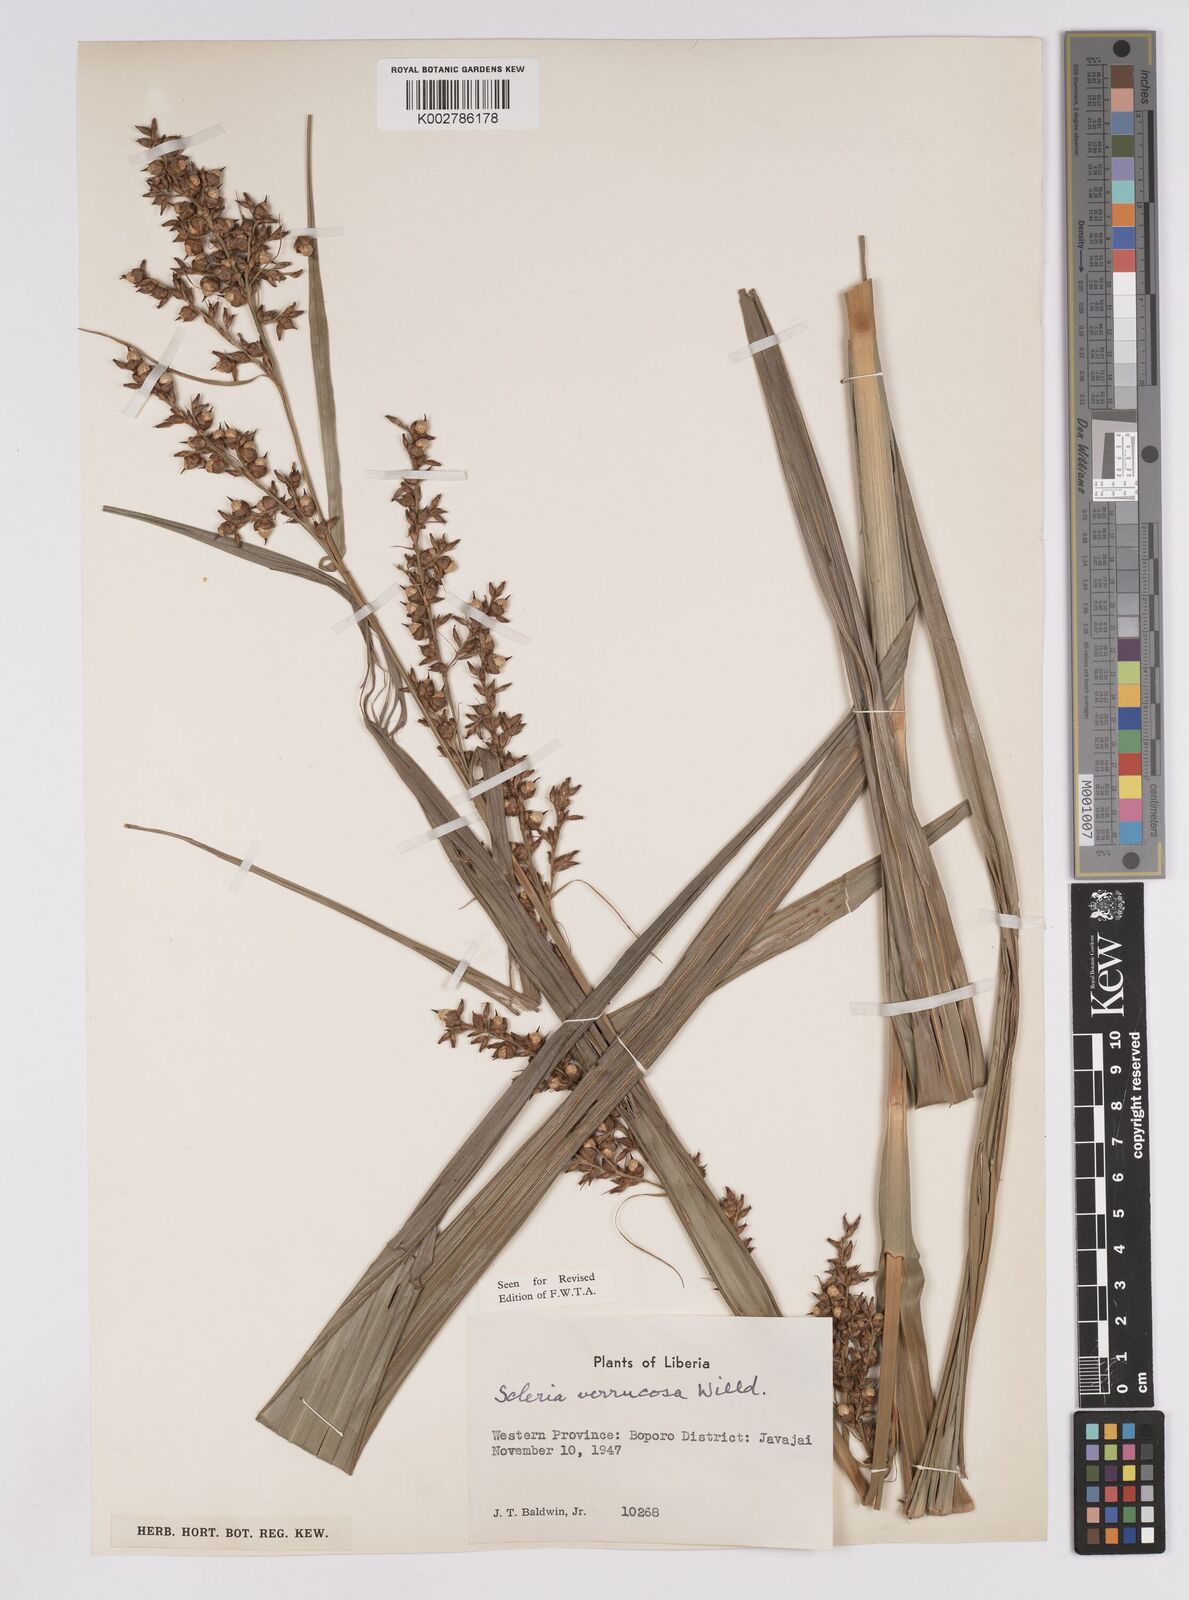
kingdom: Plantae
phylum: Tracheophyta
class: Liliopsida
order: Poales
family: Cyperaceae
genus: Scleria
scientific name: Scleria verrucosa
